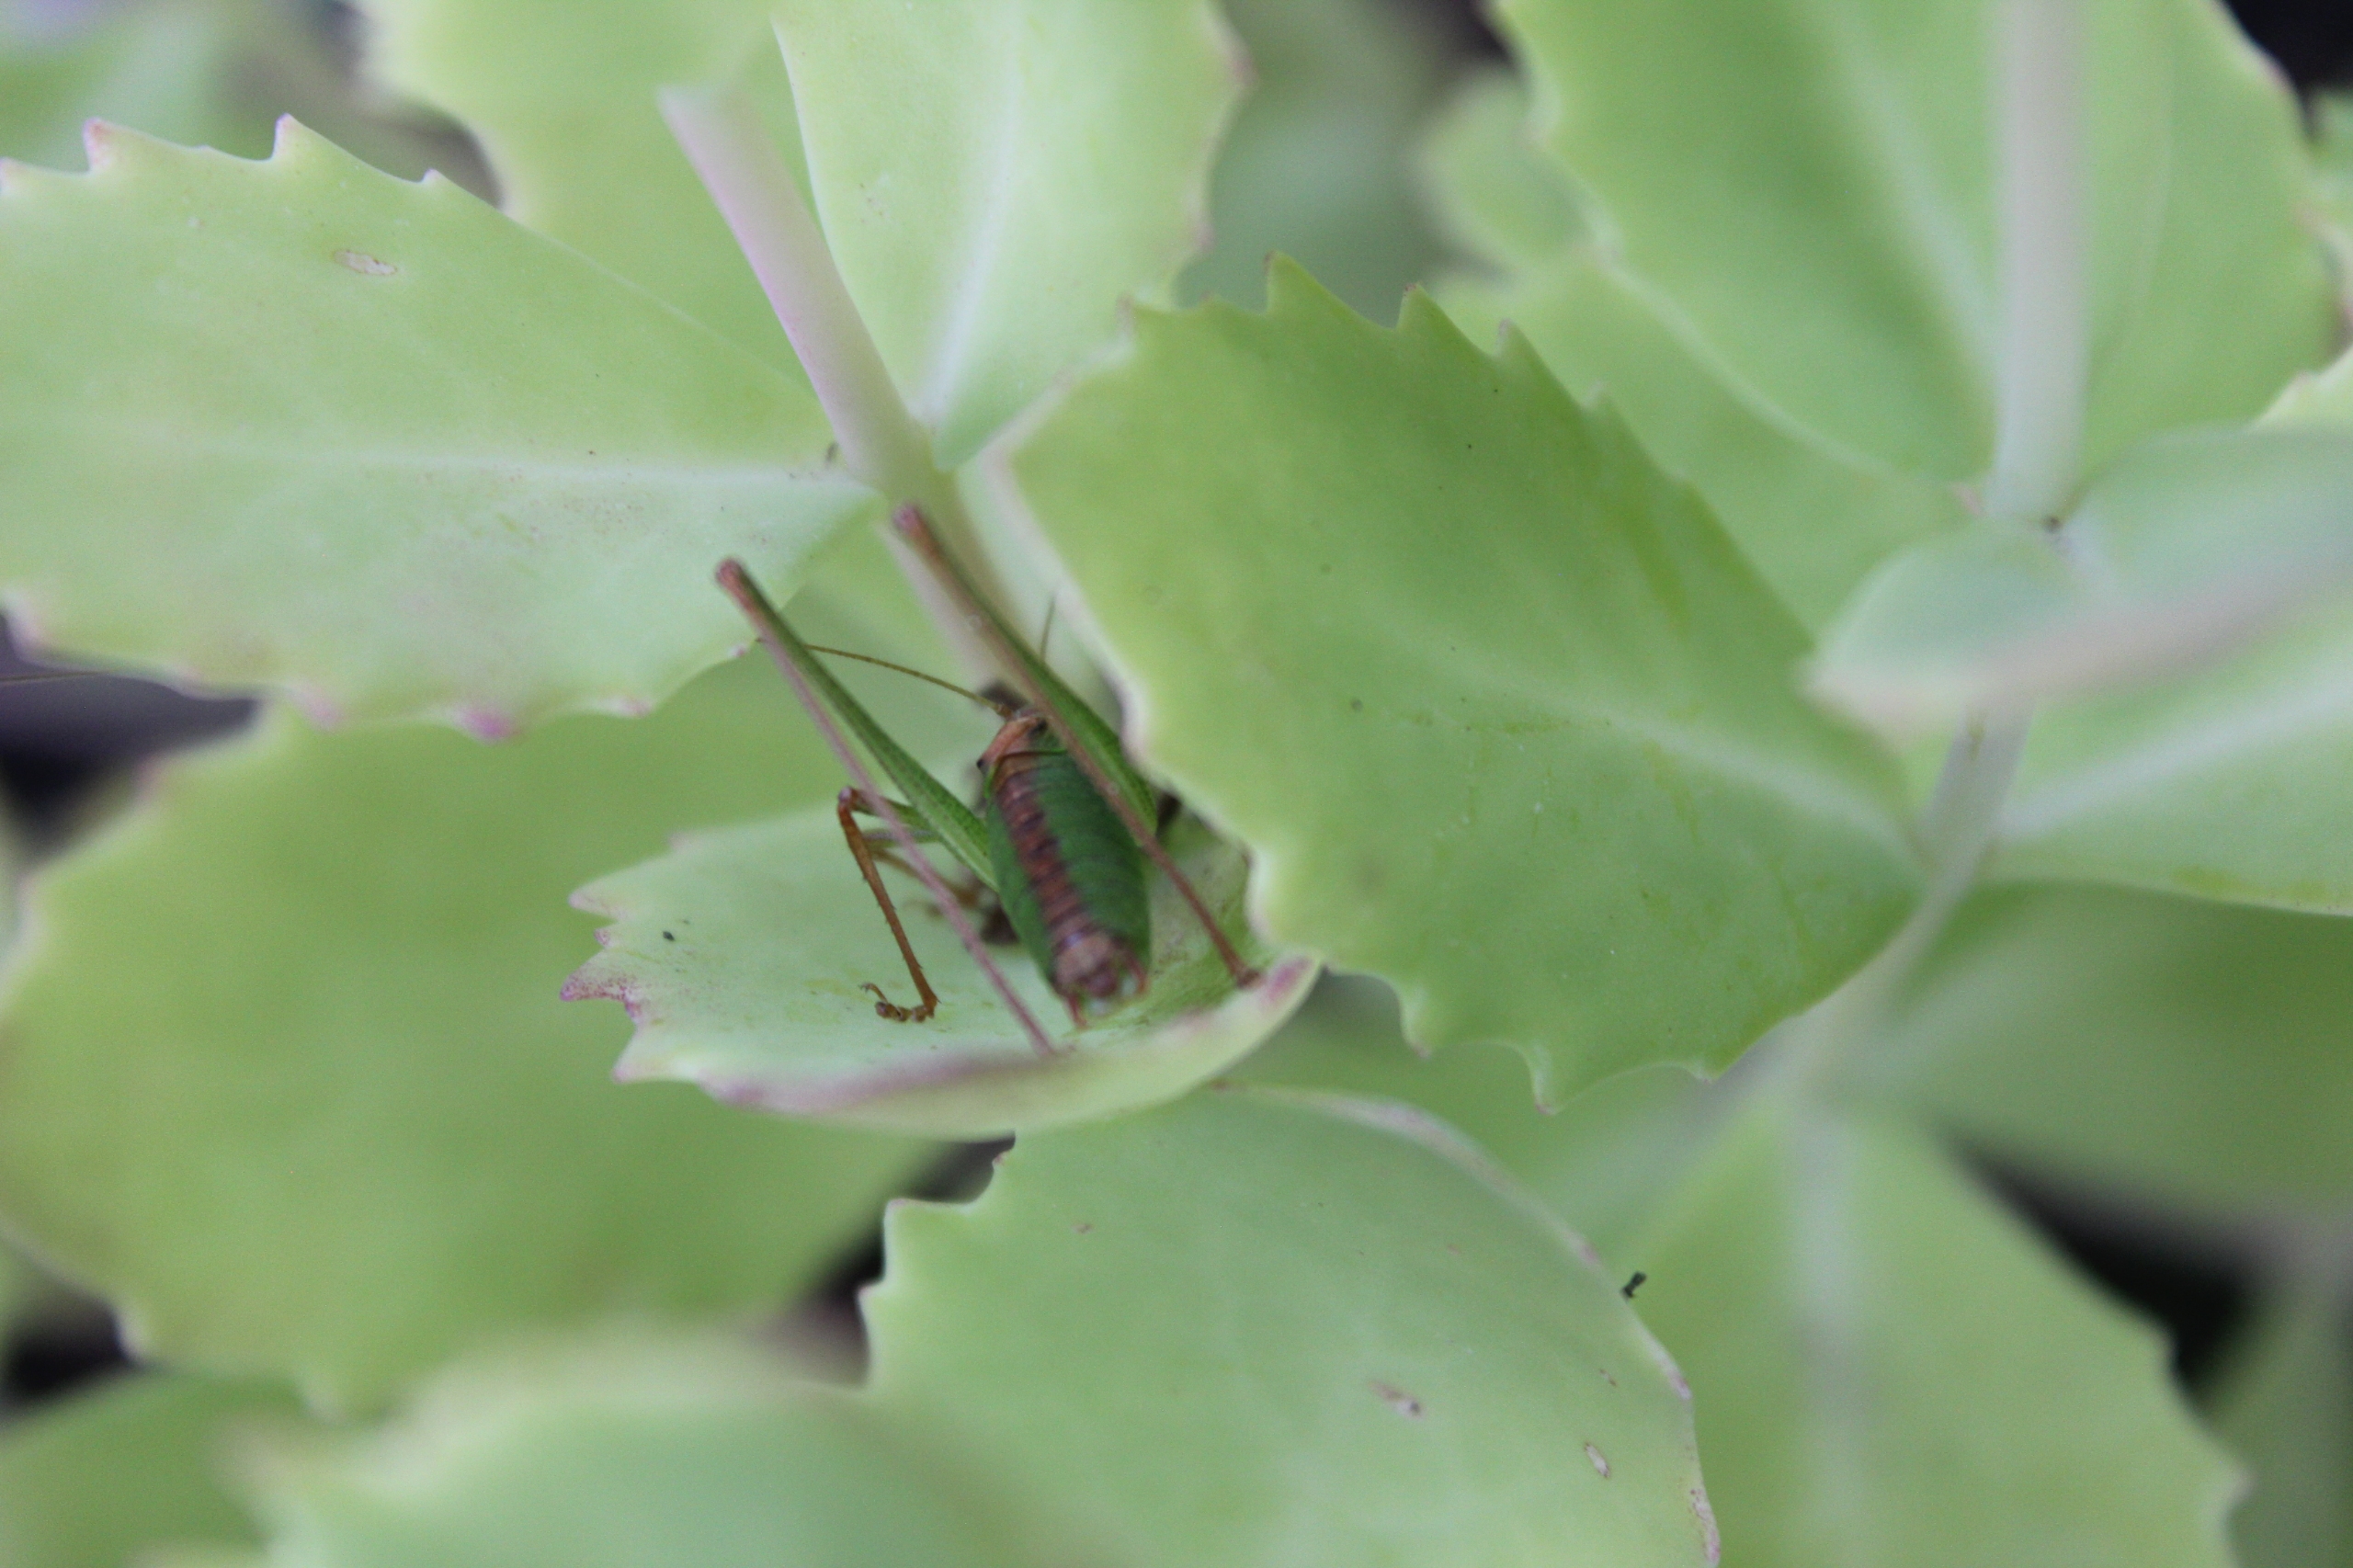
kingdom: Animalia
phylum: Arthropoda
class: Insecta
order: Orthoptera
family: Tettigoniidae
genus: Leptophyes
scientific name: Leptophyes punctatissima
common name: Krumknivgræshoppe
